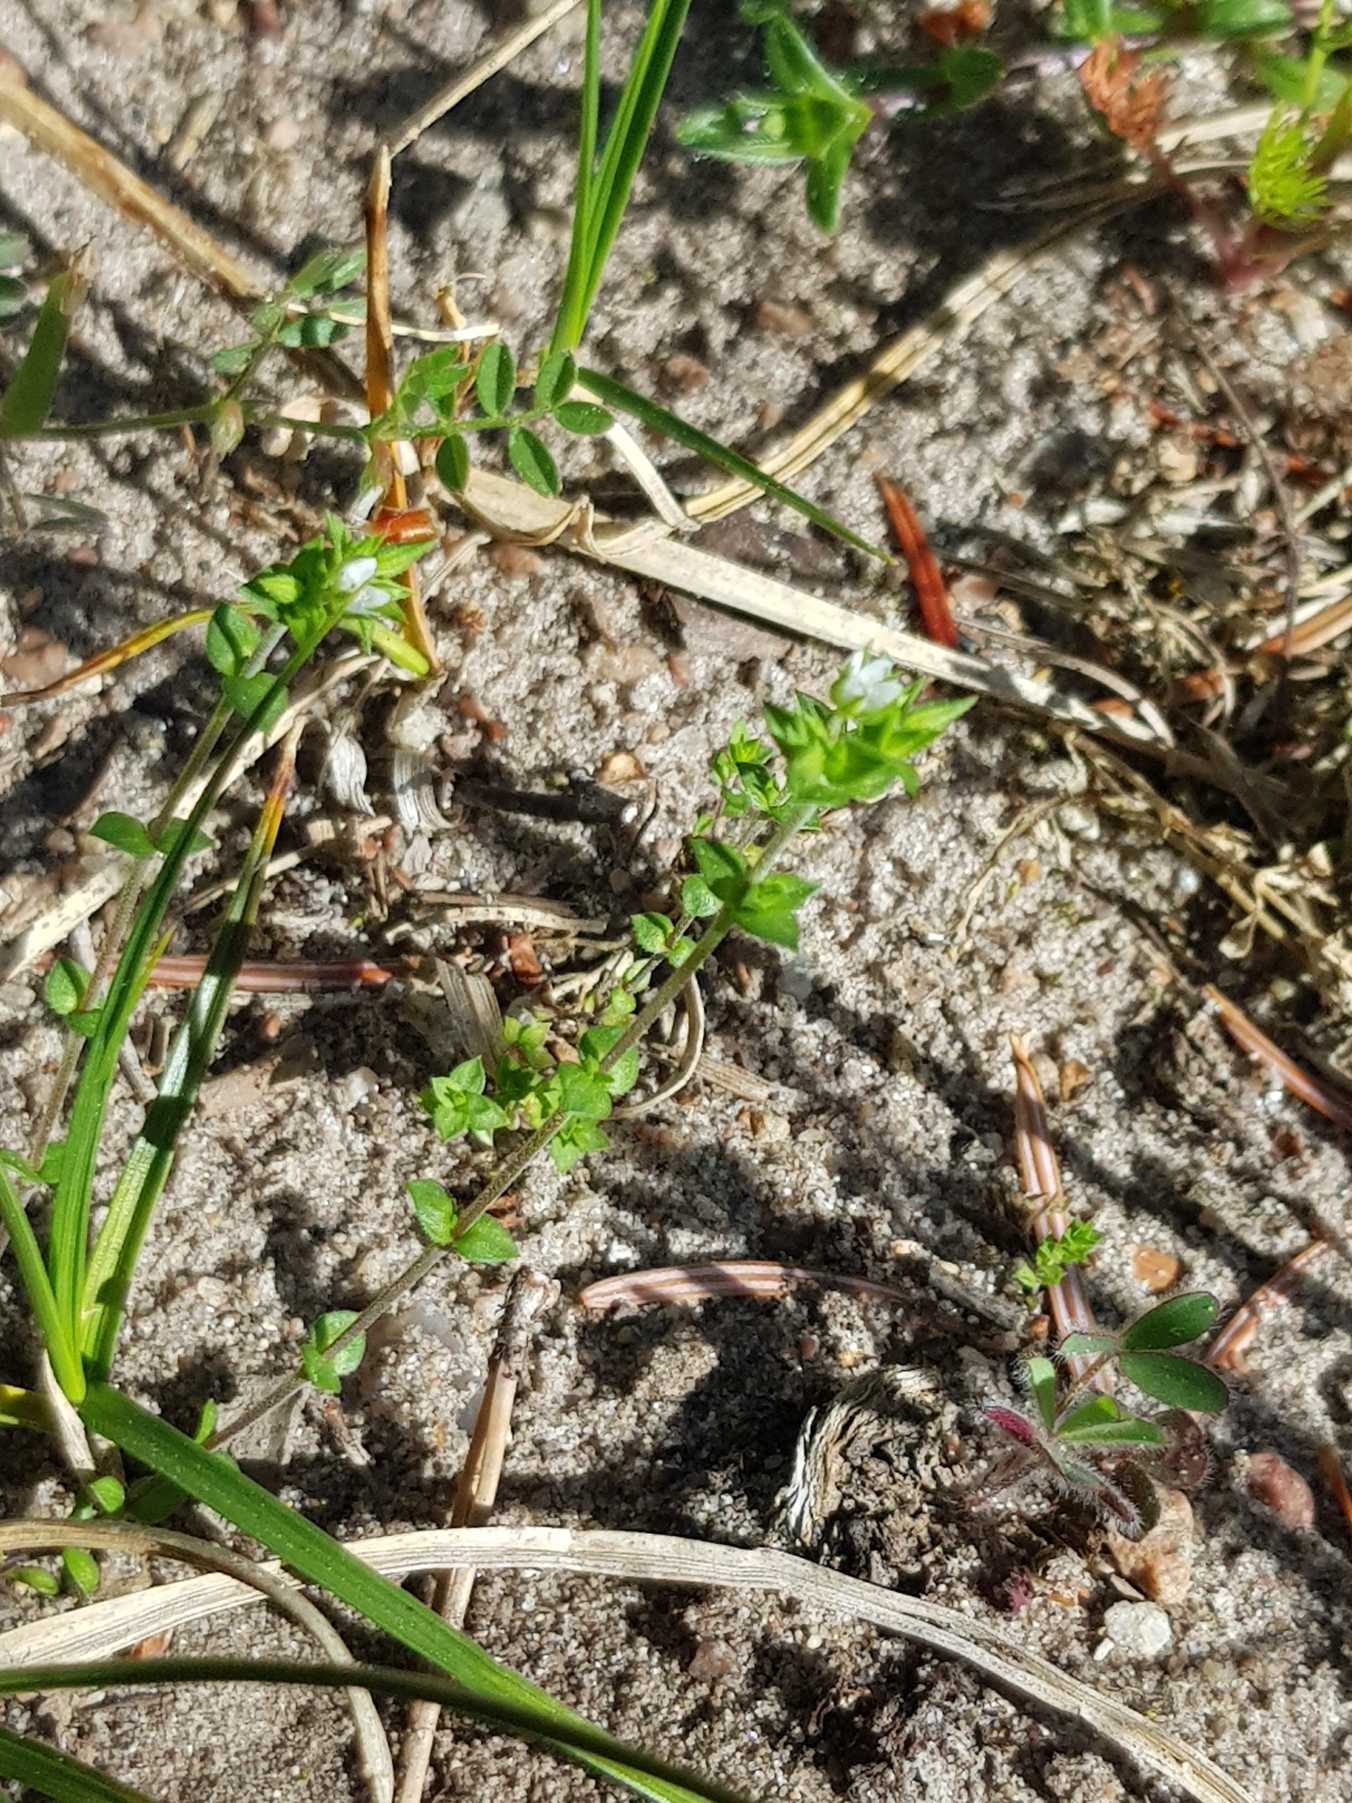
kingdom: Plantae
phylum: Tracheophyta
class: Magnoliopsida
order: Caryophyllales
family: Caryophyllaceae
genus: Arenaria
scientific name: Arenaria serpyllifolia
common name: Almindelig markarve
